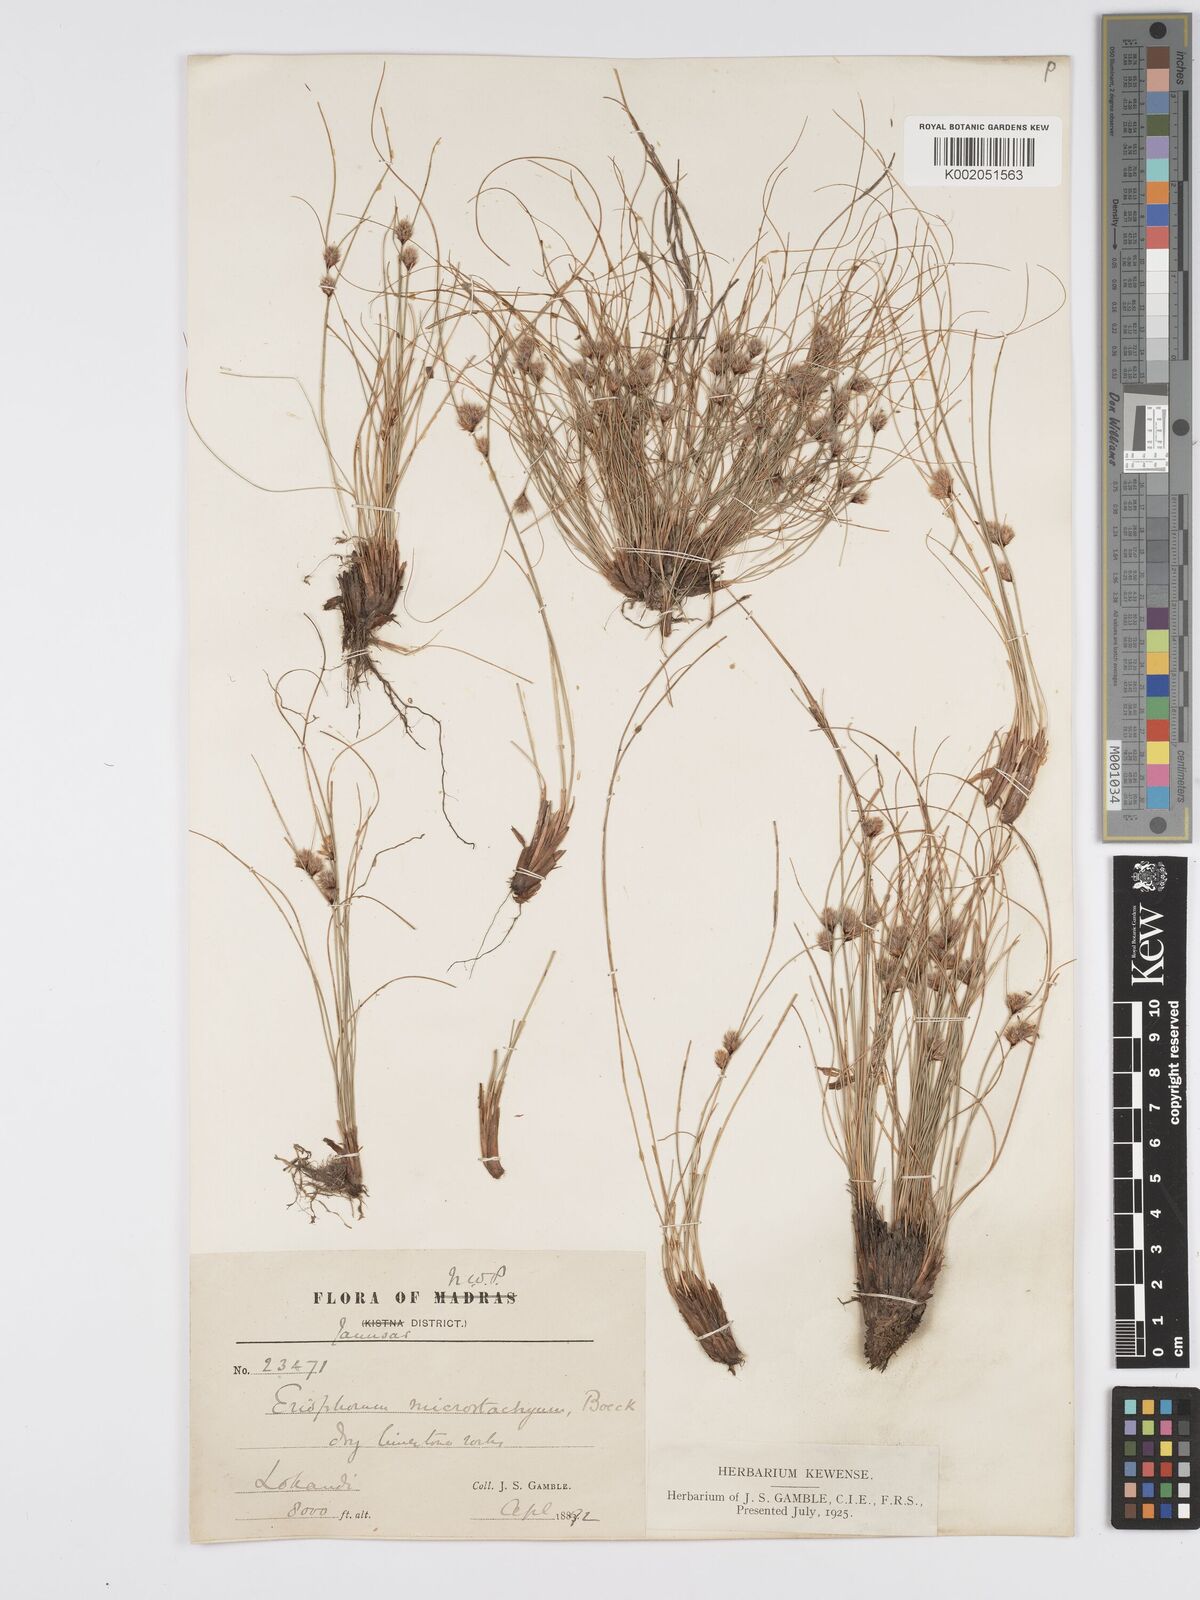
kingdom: Plantae
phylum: Tracheophyta
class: Liliopsida
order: Poales
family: Cyperaceae
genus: Erioscirpus
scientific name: Erioscirpus microstachyus
